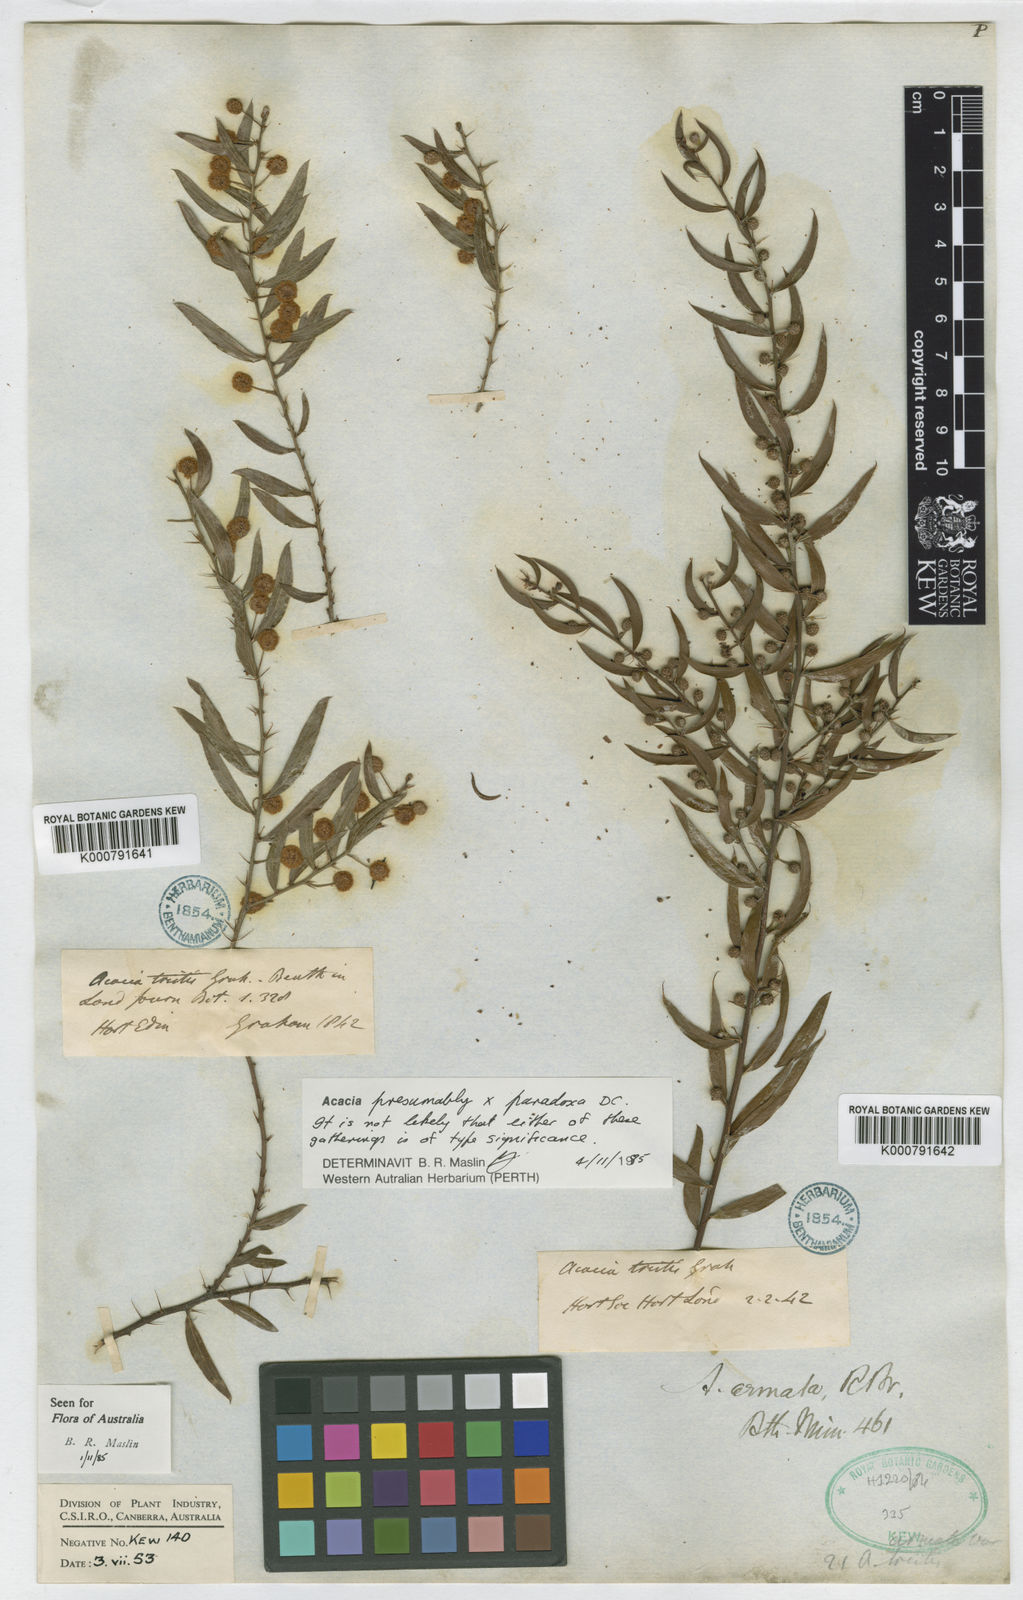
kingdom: Plantae
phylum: Tracheophyta
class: Magnoliopsida
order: Fabales
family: Fabaceae
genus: Acacia
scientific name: Acacia paradoxa
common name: Paradox acacia
